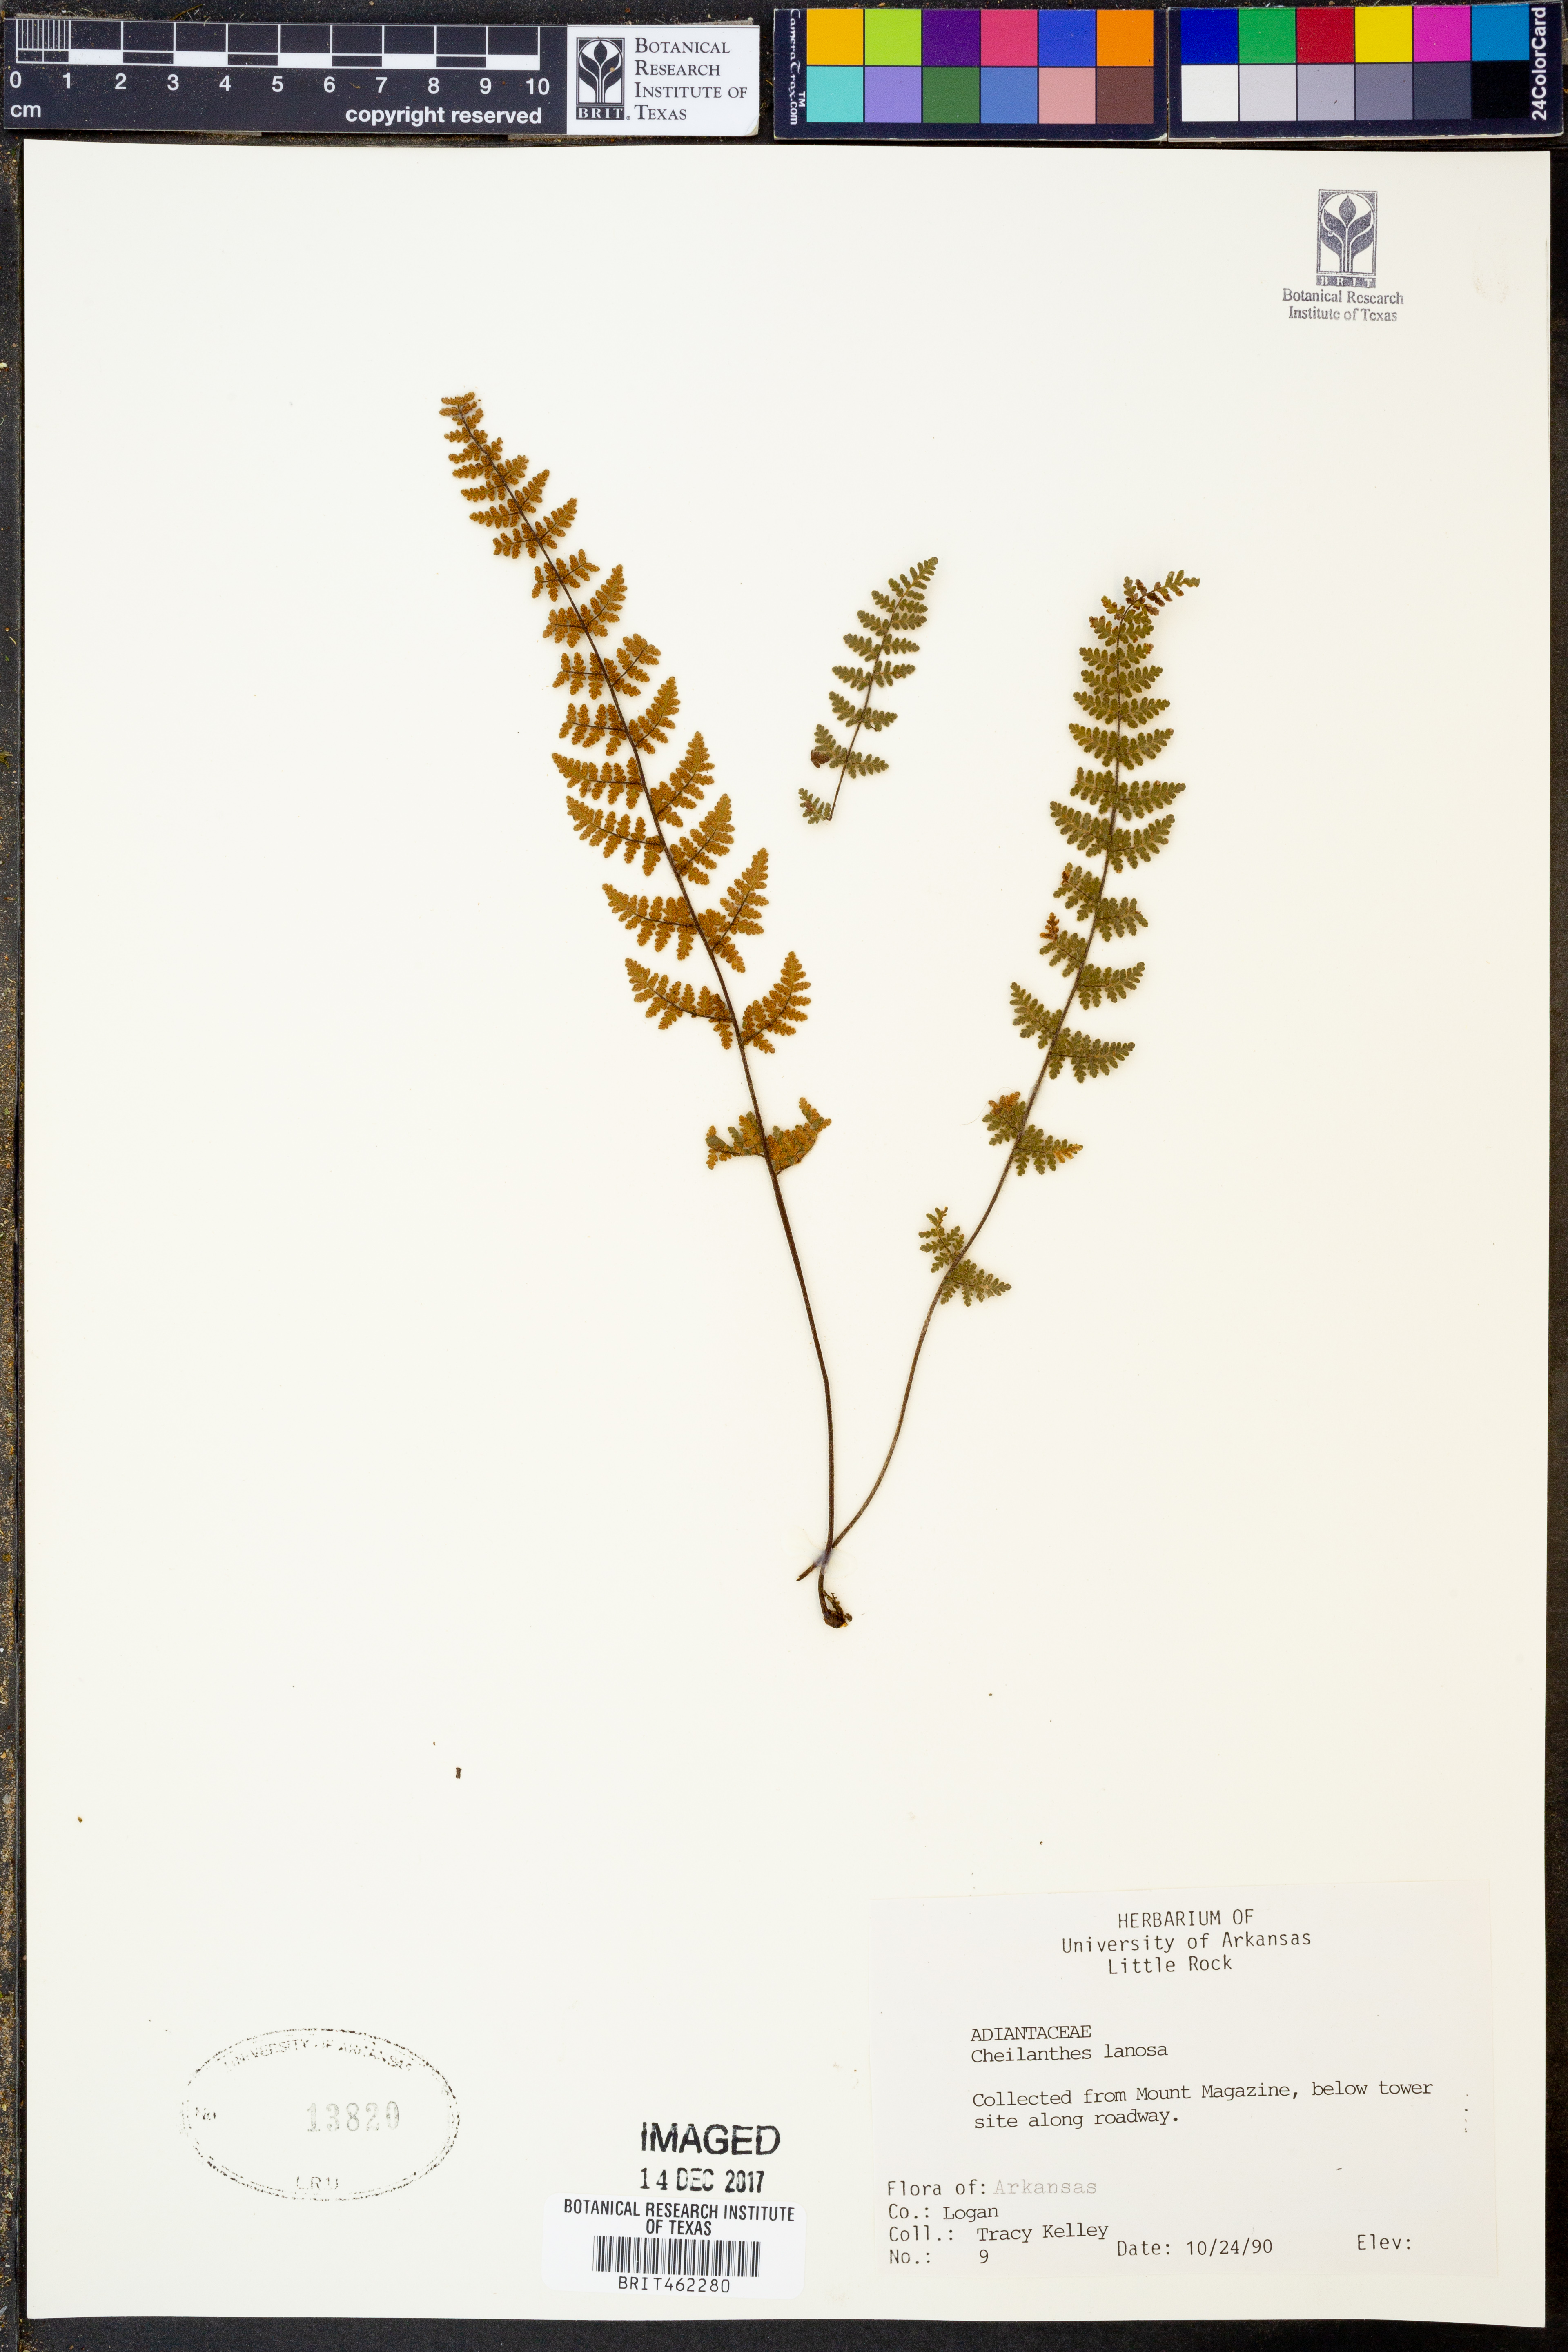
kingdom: Plantae
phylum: Tracheophyta
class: Polypodiopsida
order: Polypodiales
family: Pteridaceae
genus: Myriopteris
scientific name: Myriopteris lanosa
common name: Hairy lip fern
